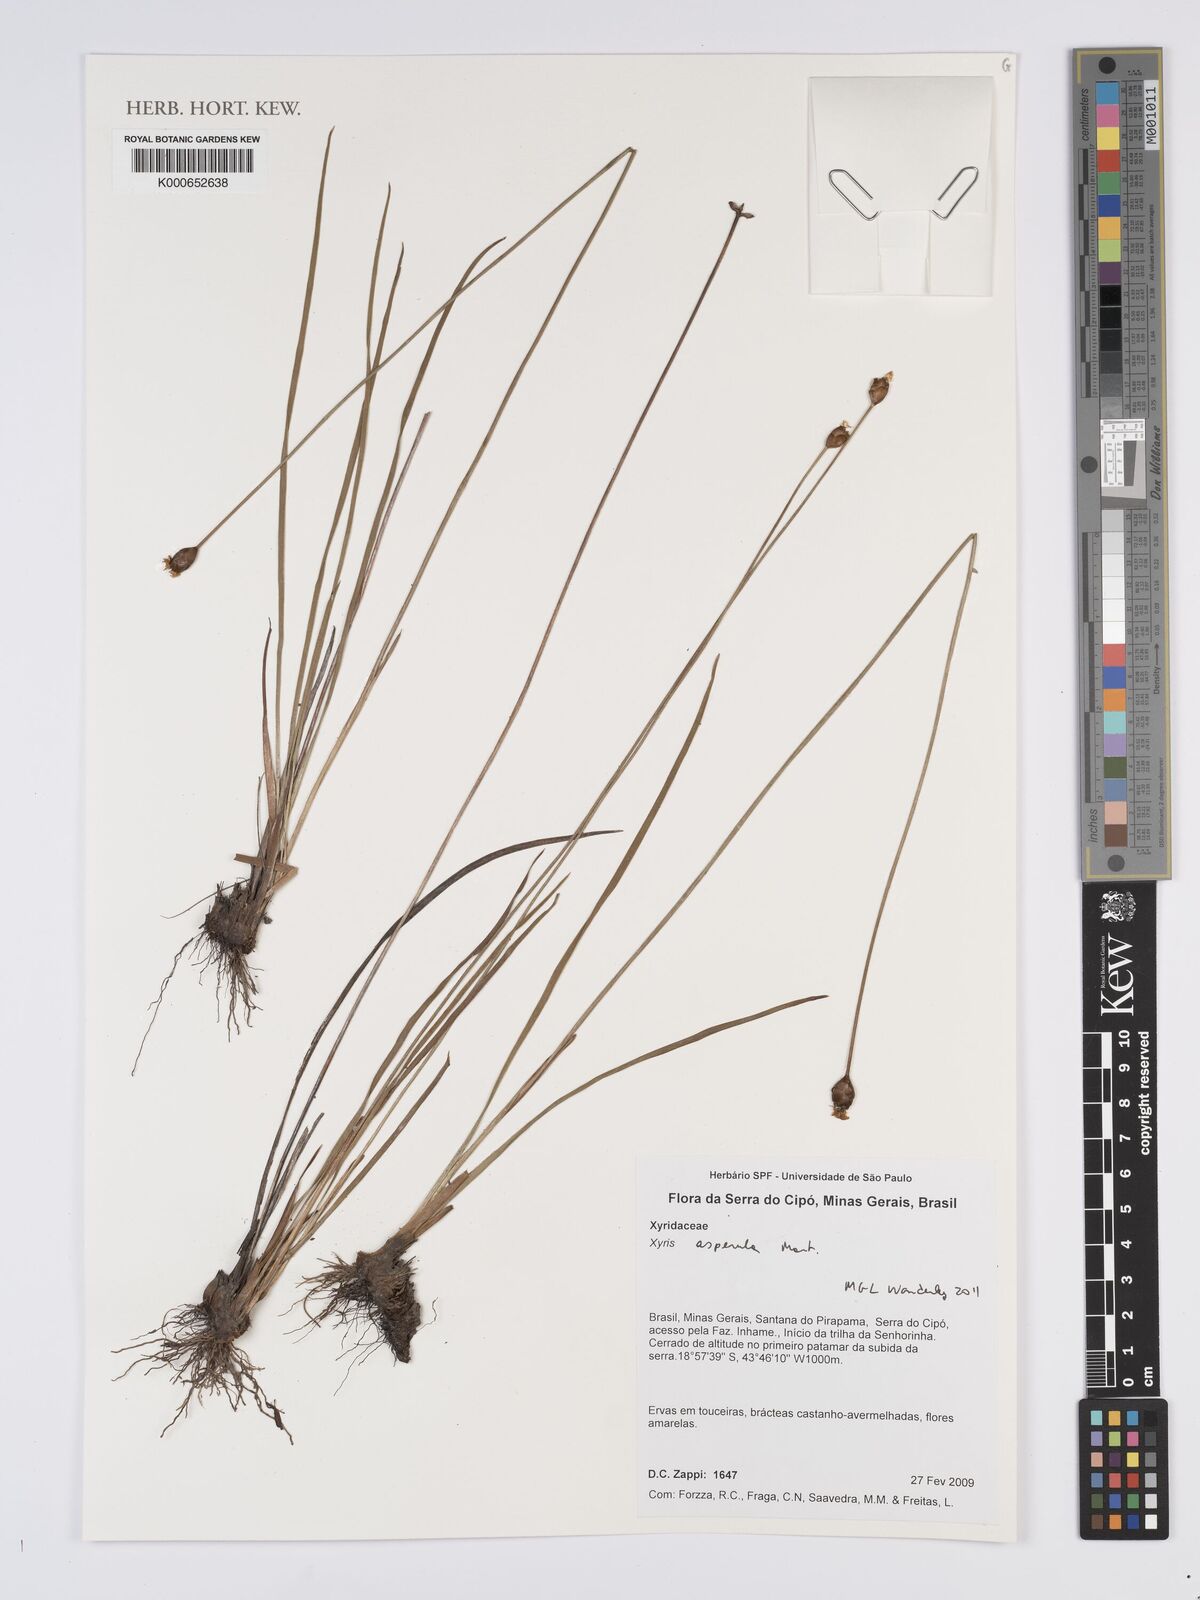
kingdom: Plantae
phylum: Tracheophyta
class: Liliopsida
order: Poales
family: Xyridaceae
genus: Xyris
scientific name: Xyris asperula
